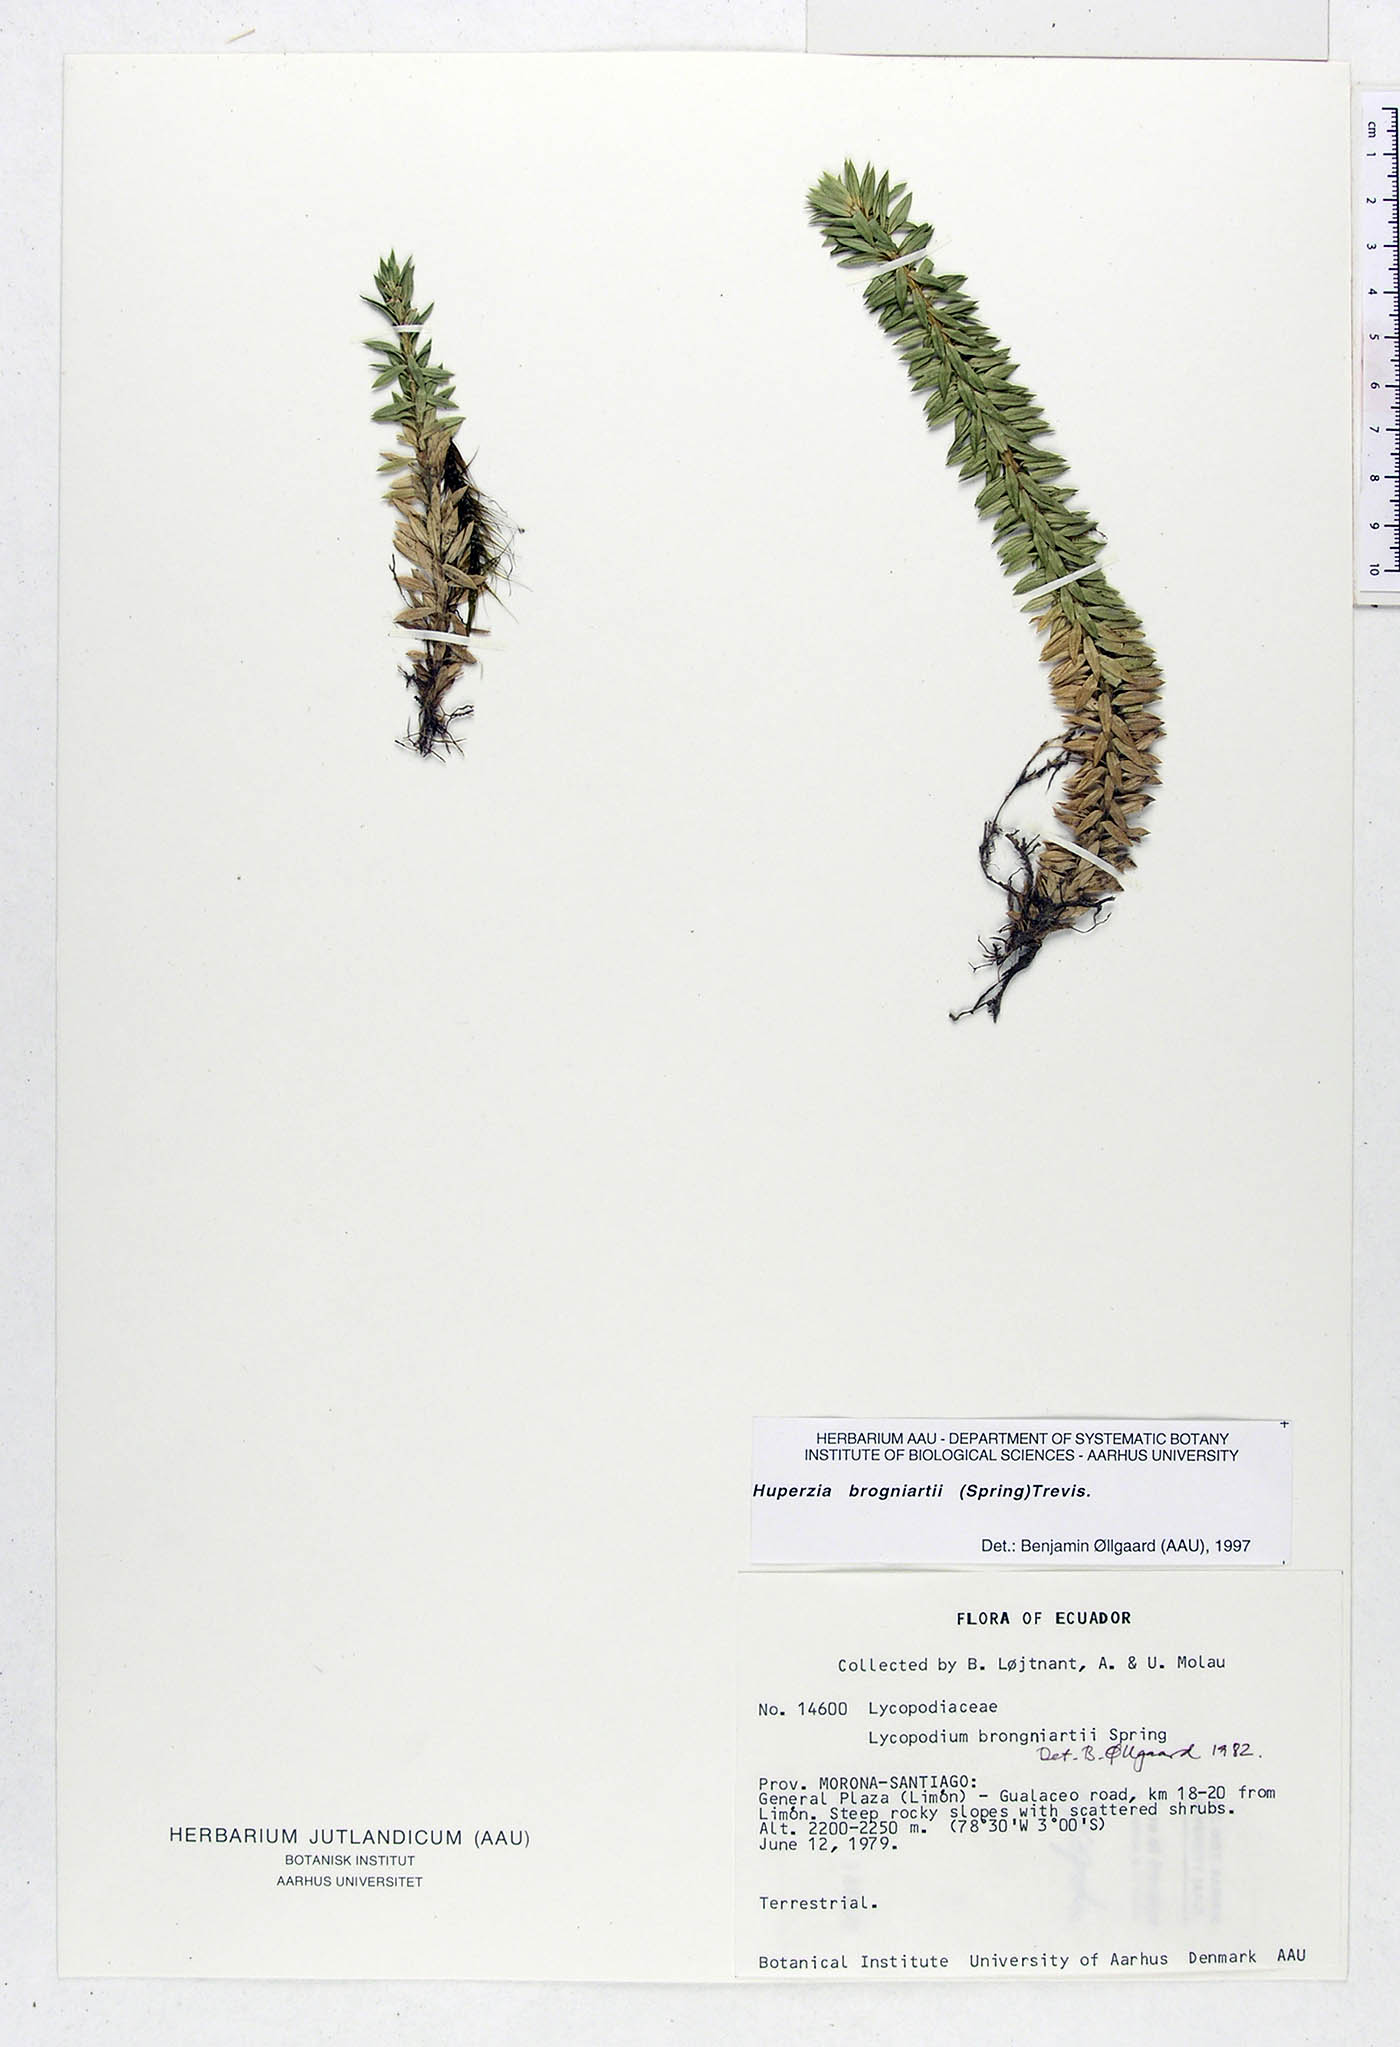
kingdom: Plantae
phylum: Tracheophyta
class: Lycopodiopsida
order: Lycopodiales
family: Lycopodiaceae
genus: Phlegmariurus
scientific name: Phlegmariurus brongniartii
